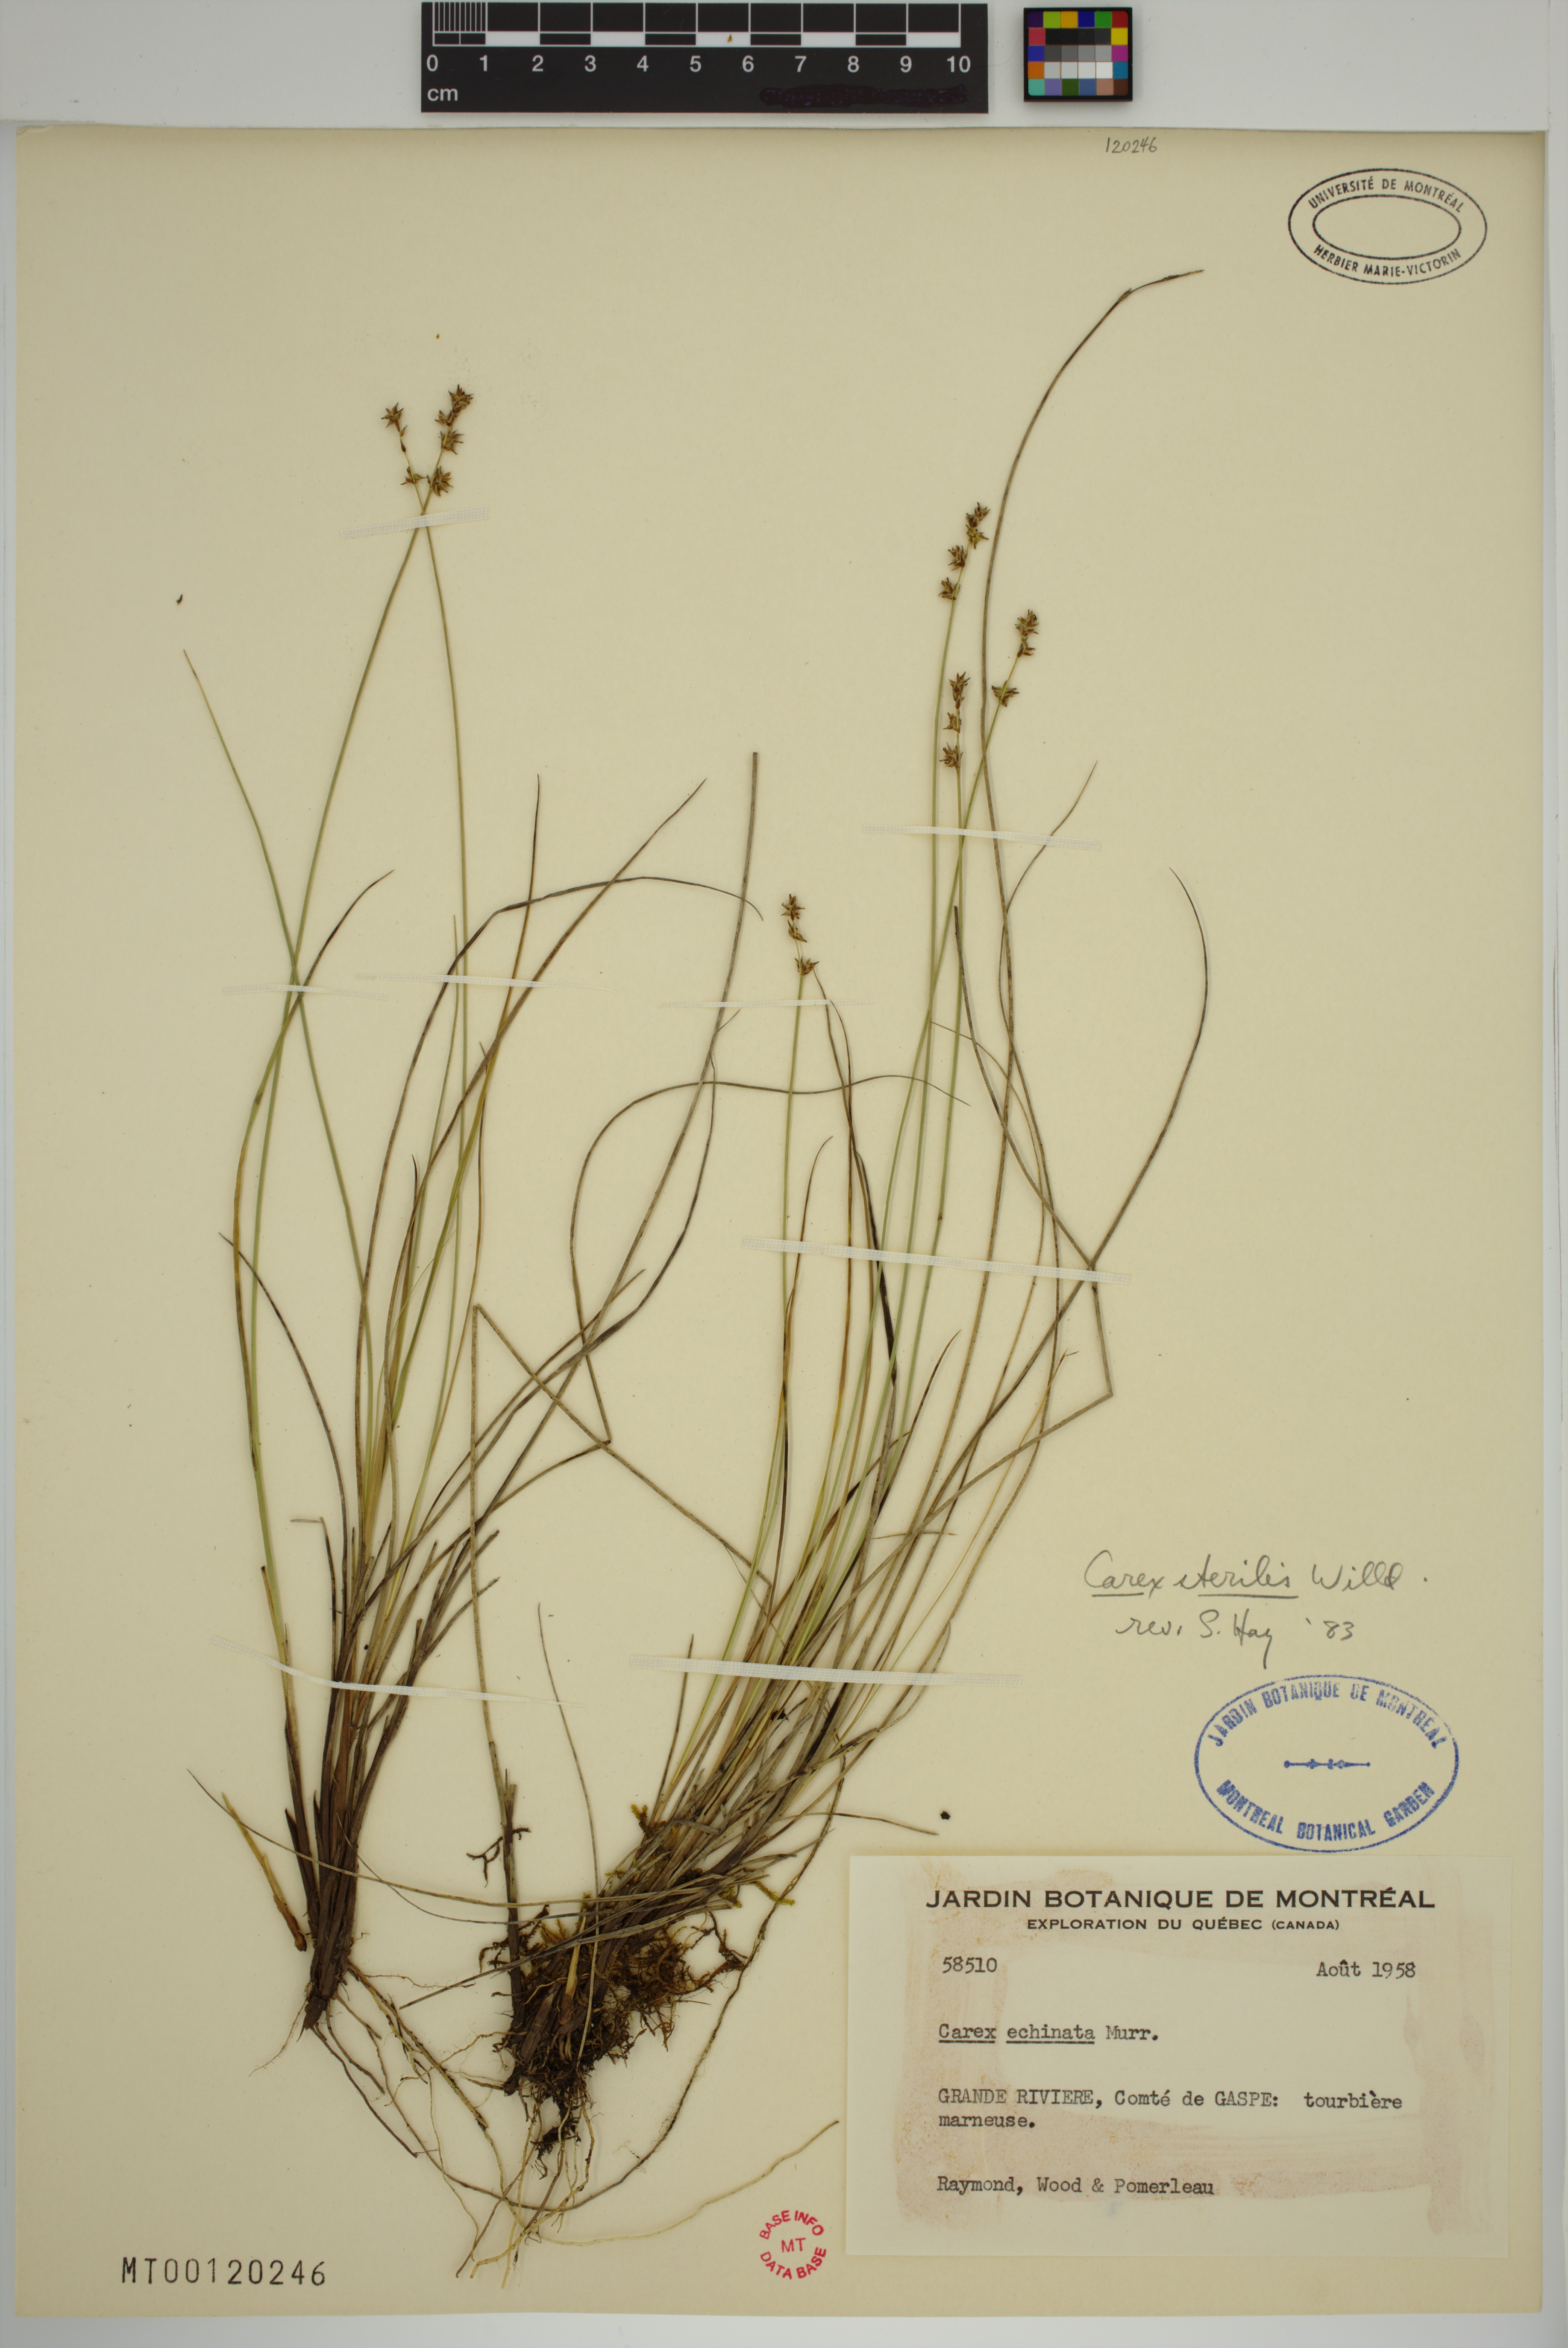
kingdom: Plantae
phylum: Tracheophyta
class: Liliopsida
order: Poales
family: Cyperaceae
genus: Carex
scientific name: Carex sterilis
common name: Dioecious sedge
